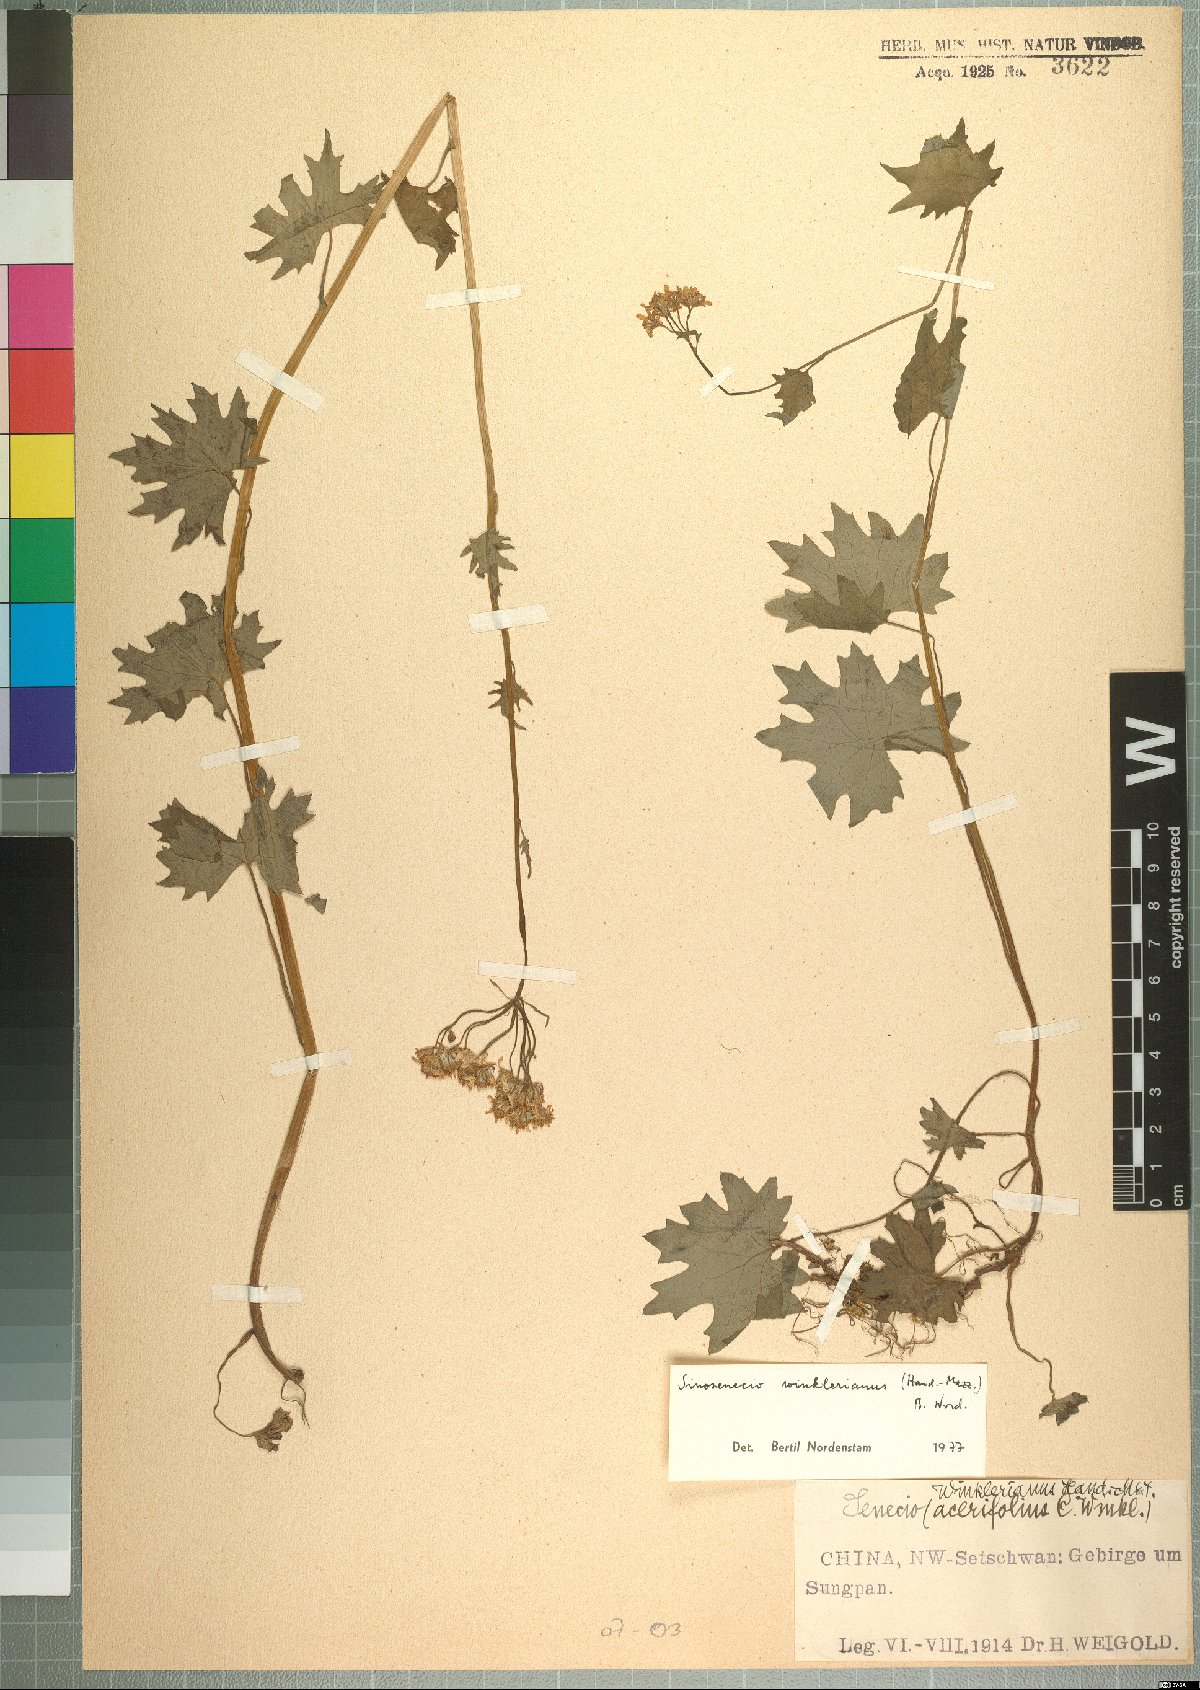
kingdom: Plantae
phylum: Tracheophyta
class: Magnoliopsida
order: Asterales
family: Asteraceae
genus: Sinosenecio
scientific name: Sinosenecio euosmus
